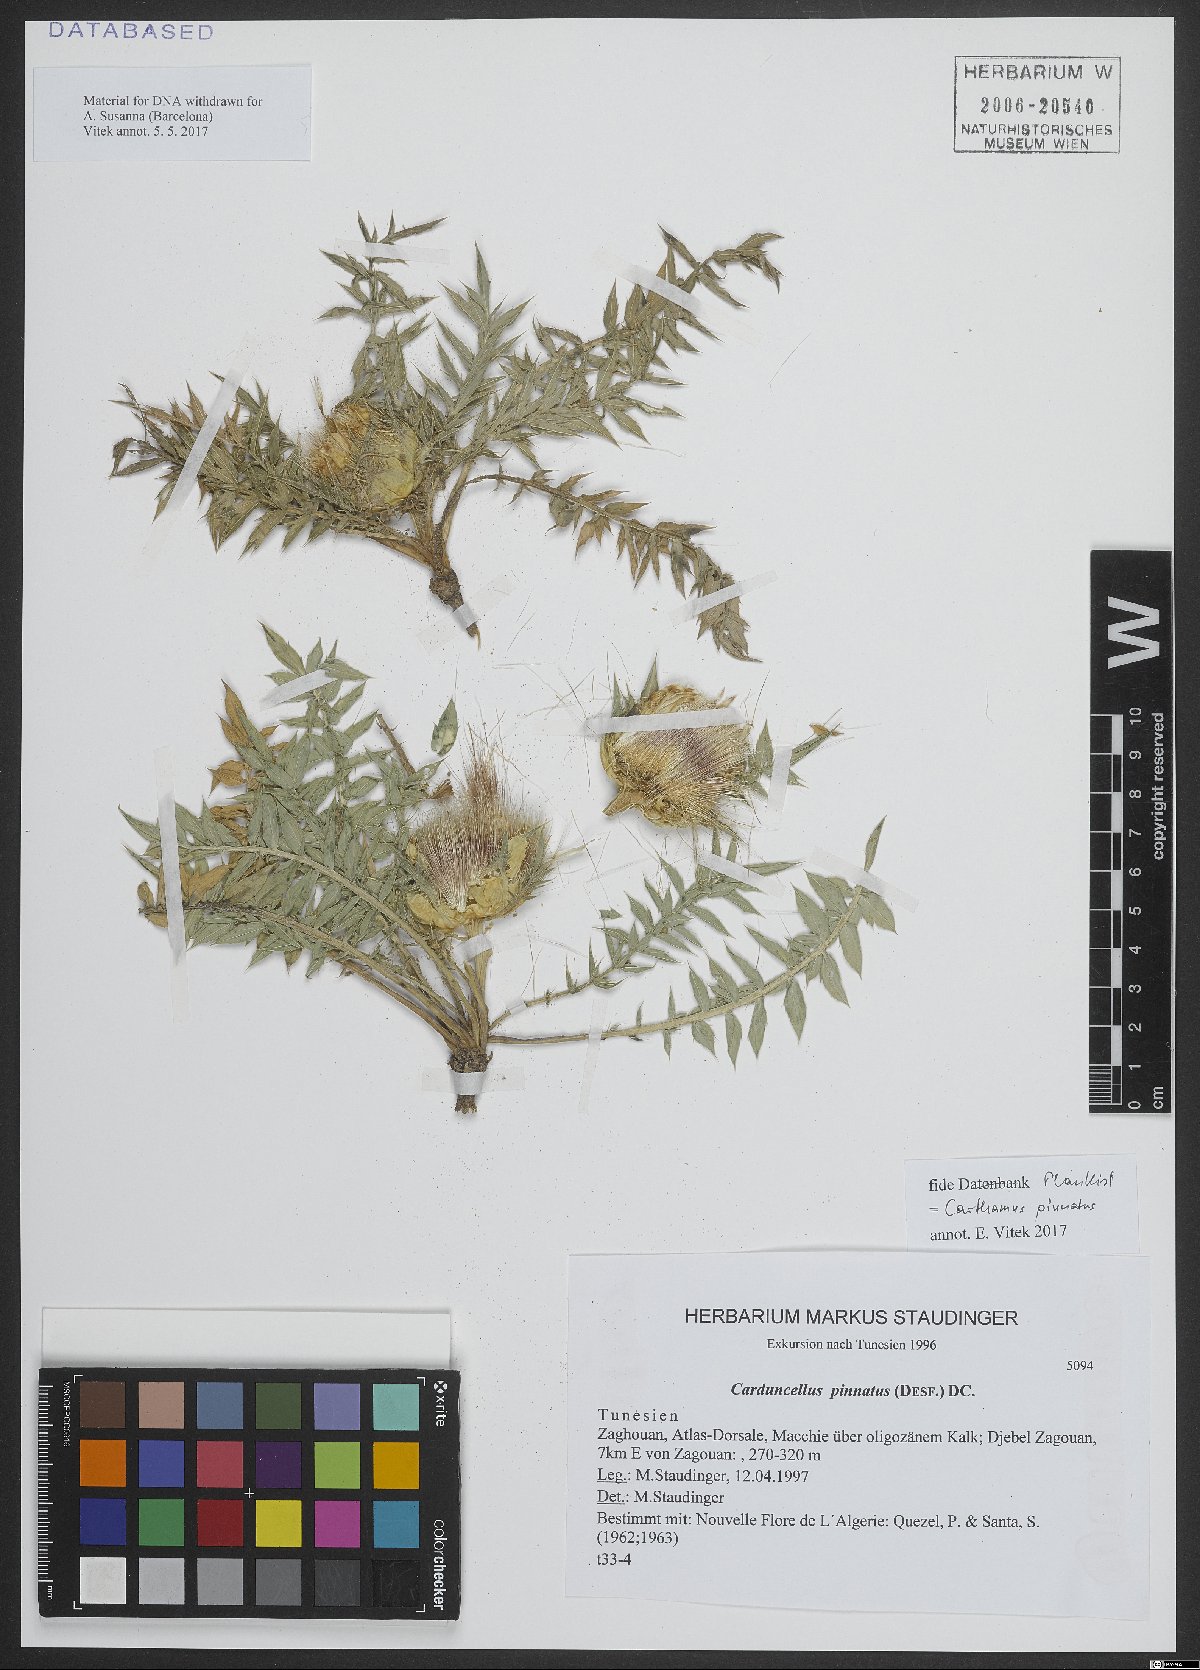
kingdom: Plantae
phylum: Tracheophyta
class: Magnoliopsida
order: Asterales
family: Asteraceae
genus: Carduncellus
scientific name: Carduncellus pinnatus
